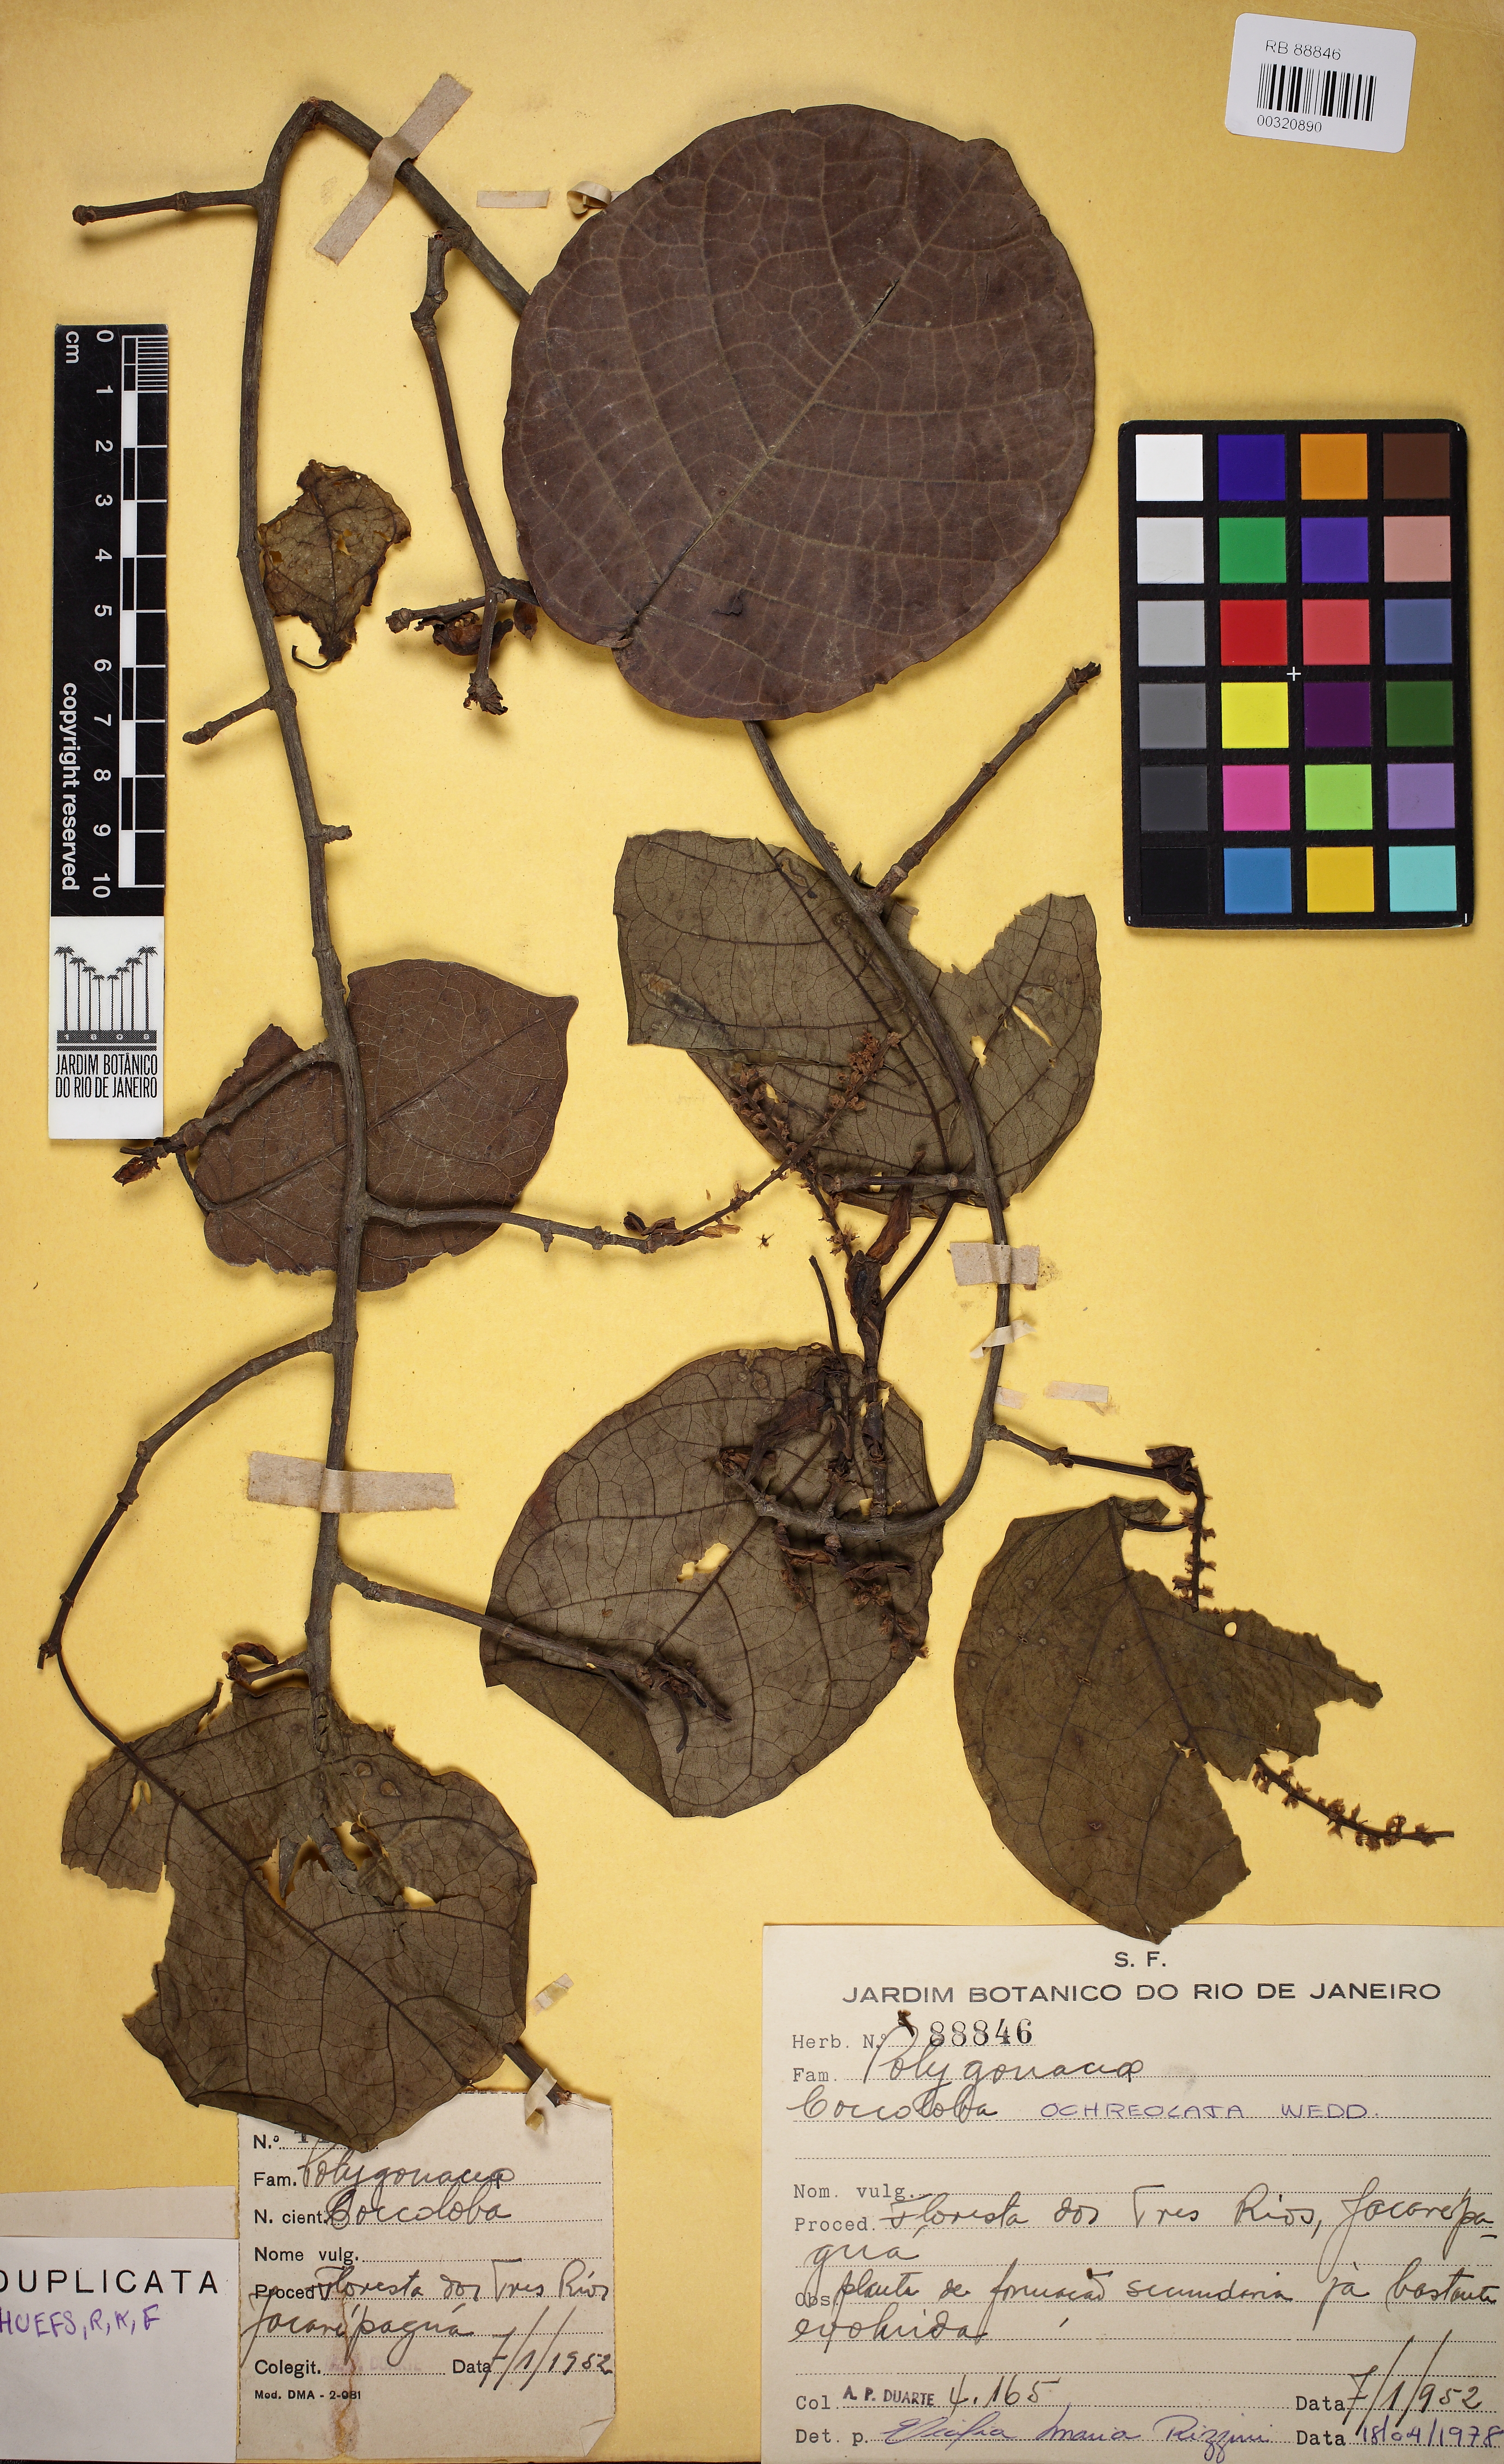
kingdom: Plantae
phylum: Tracheophyta
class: Magnoliopsida
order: Caryophyllales
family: Polygonaceae
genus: Coccoloba
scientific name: Coccoloba ochreolata
